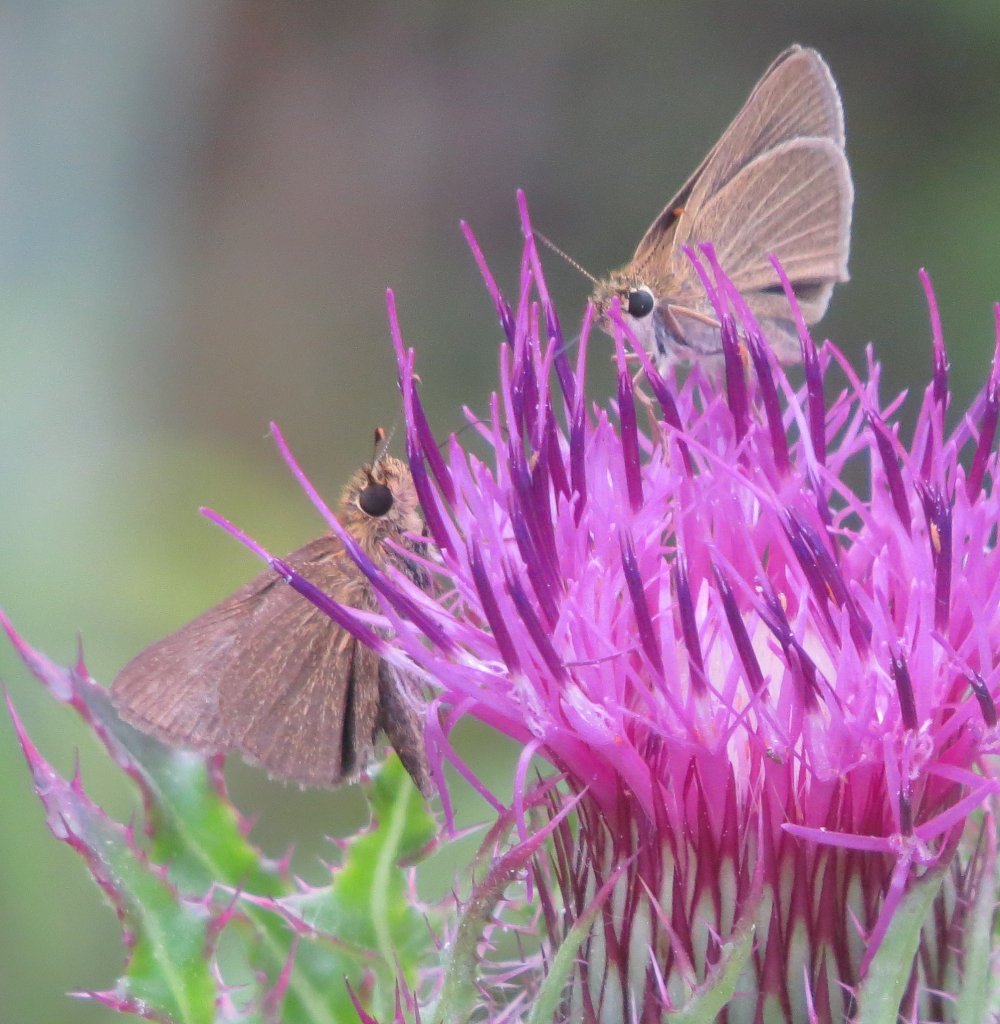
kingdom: Animalia
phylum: Arthropoda
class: Insecta
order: Lepidoptera
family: Hesperiidae
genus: Nastra
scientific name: Nastra lherminier
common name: Swarthy Skipper
